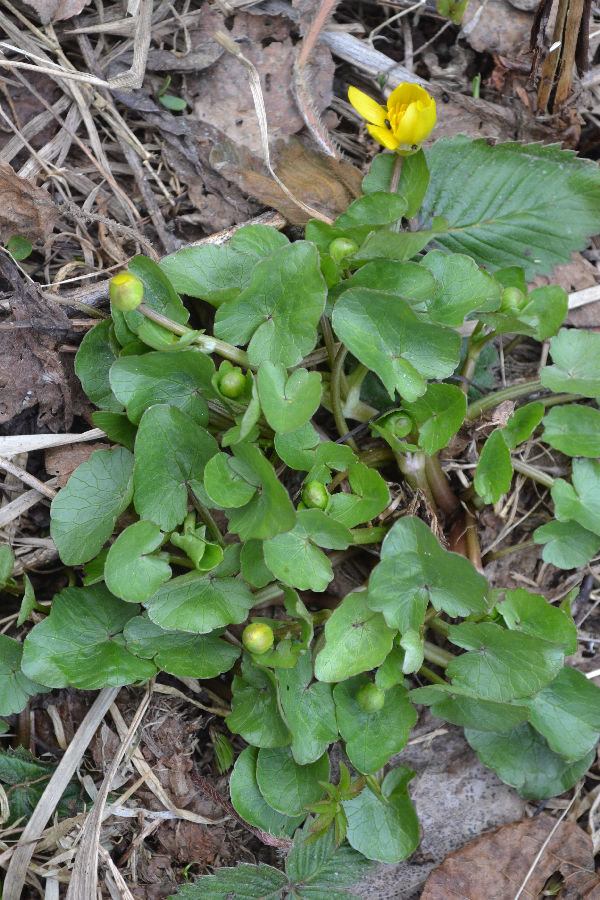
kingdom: Plantae
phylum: Tracheophyta
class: Magnoliopsida
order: Ranunculales
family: Ranunculaceae
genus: Ficaria
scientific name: Ficaria verna
